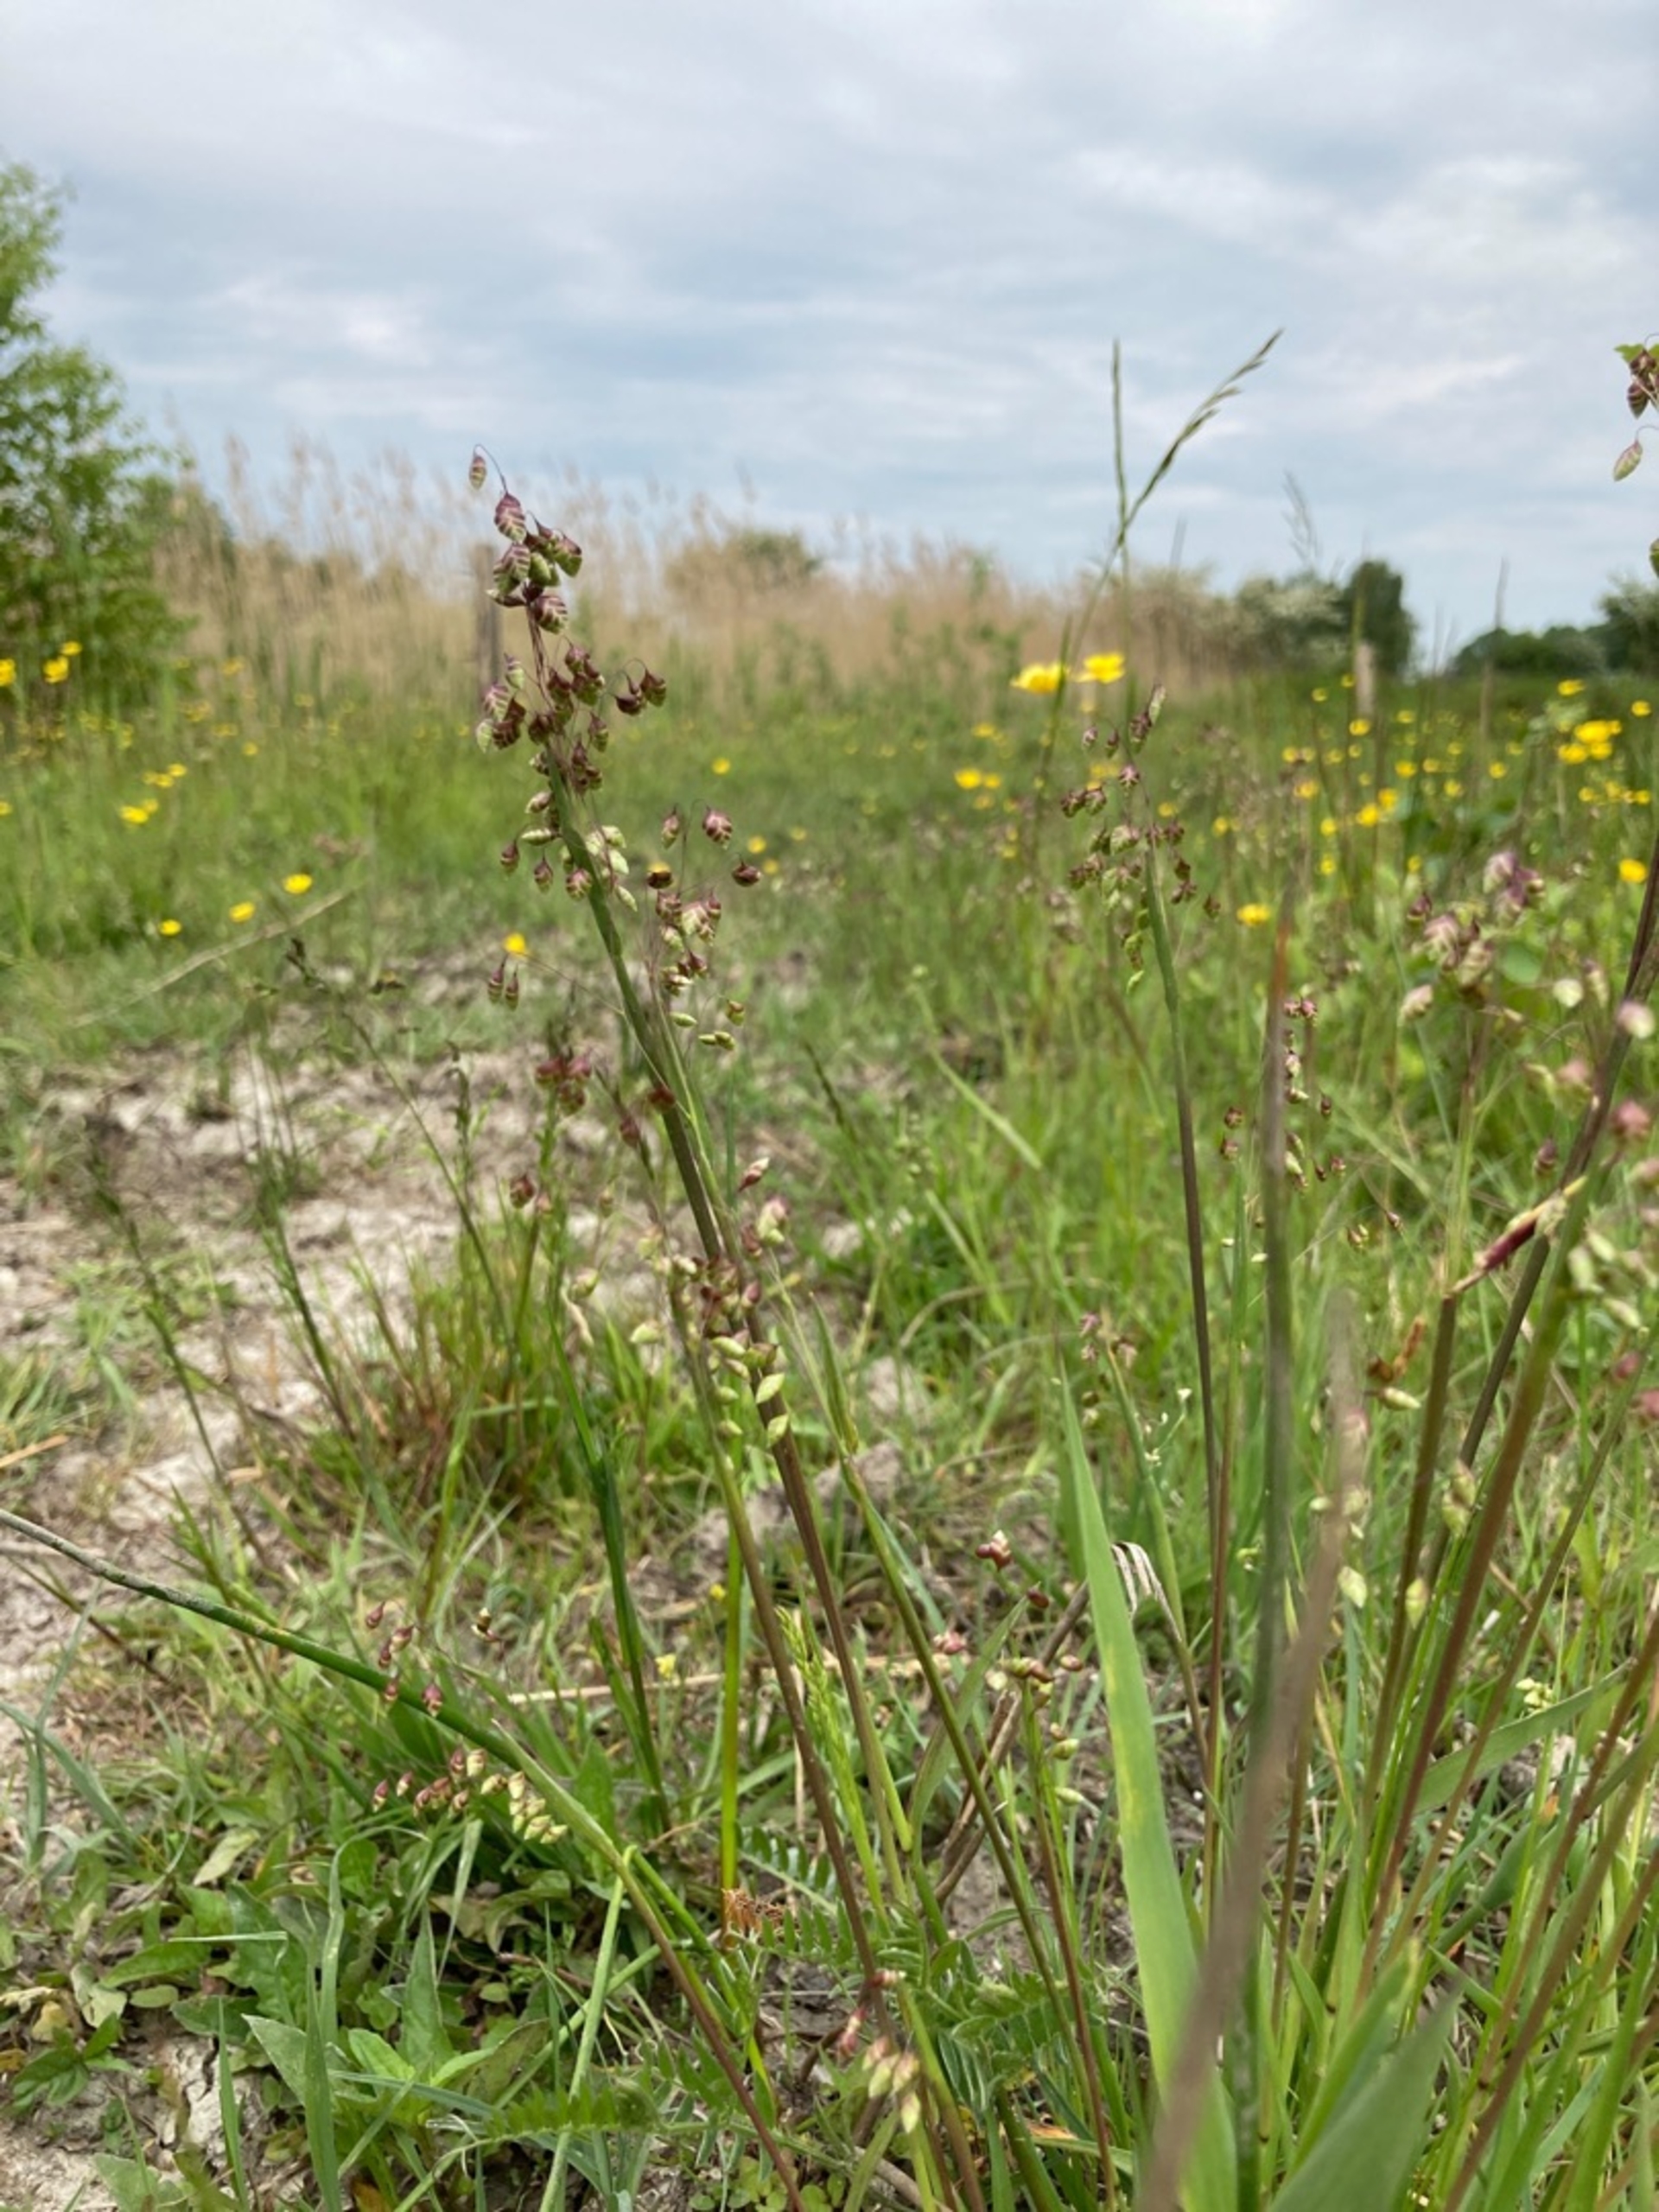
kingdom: Plantae
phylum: Tracheophyta
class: Liliopsida
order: Poales
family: Poaceae
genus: Briza
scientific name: Briza media
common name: Hjertegræs
